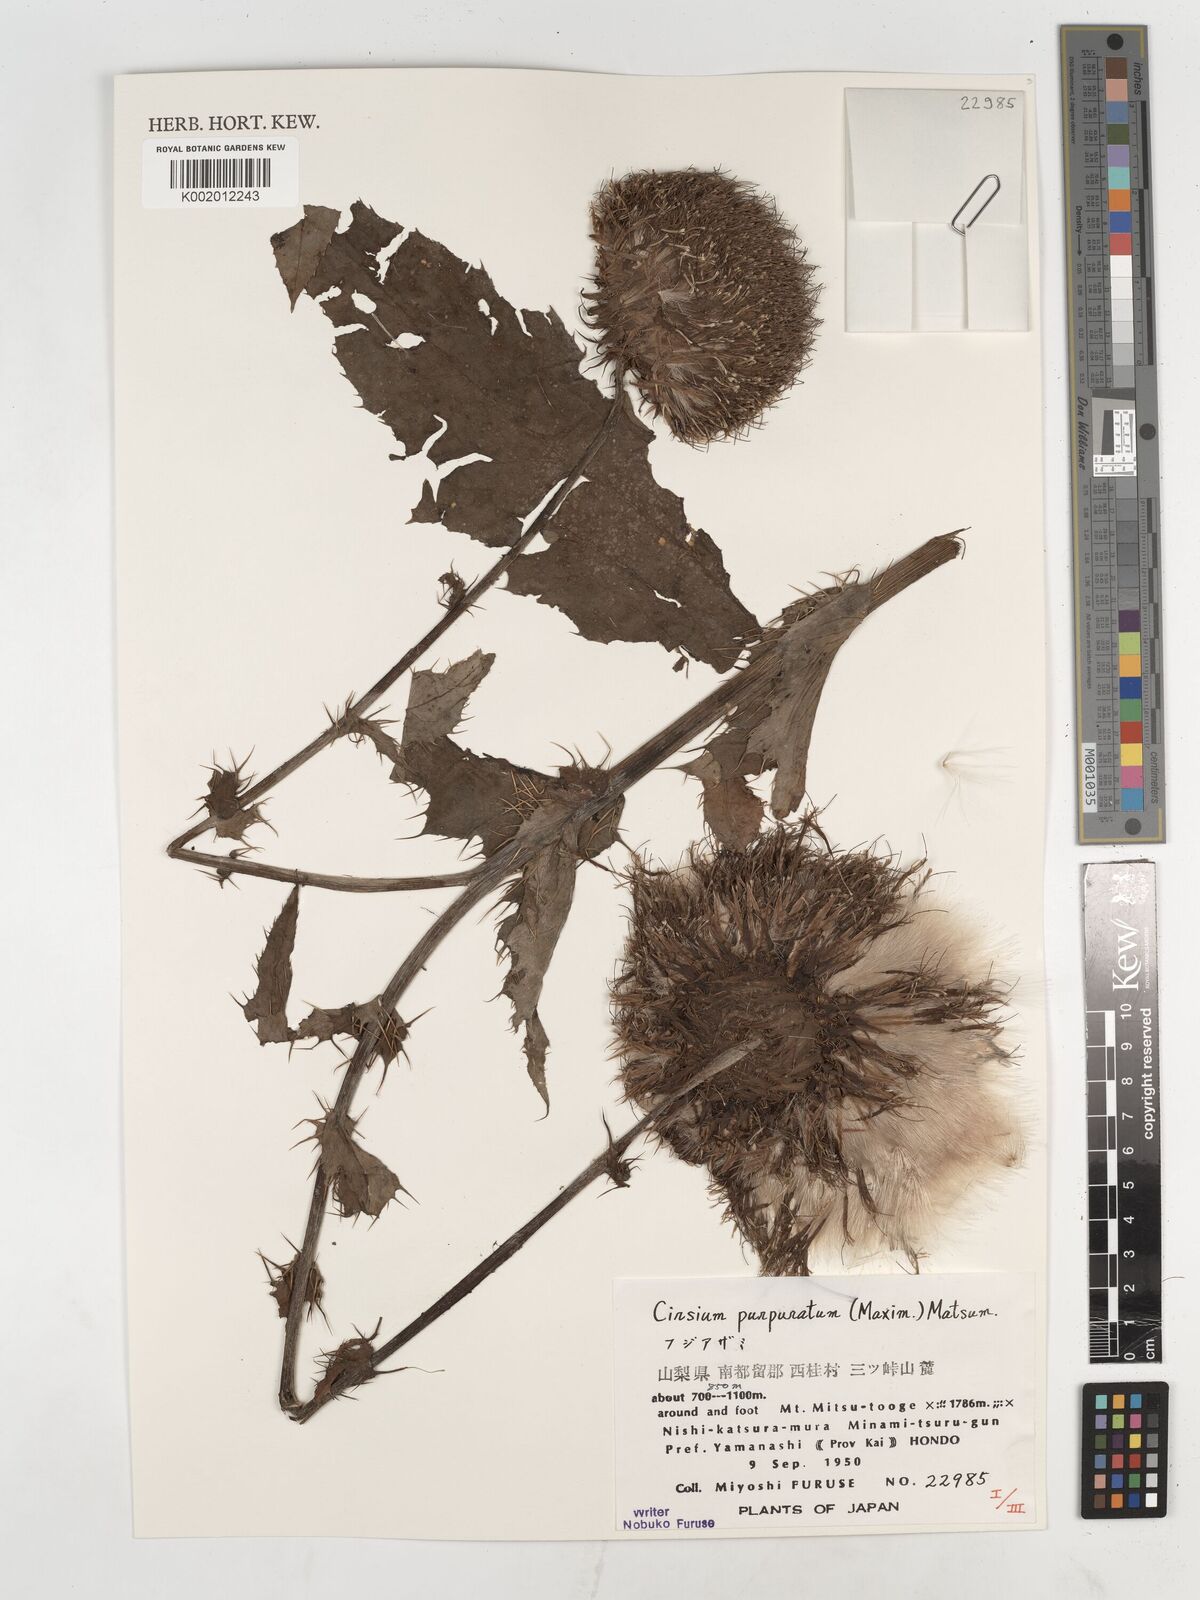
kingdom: Plantae
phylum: Tracheophyta
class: Magnoliopsida
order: Asterales
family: Asteraceae
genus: Cirsium
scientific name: Cirsium purpuratum
